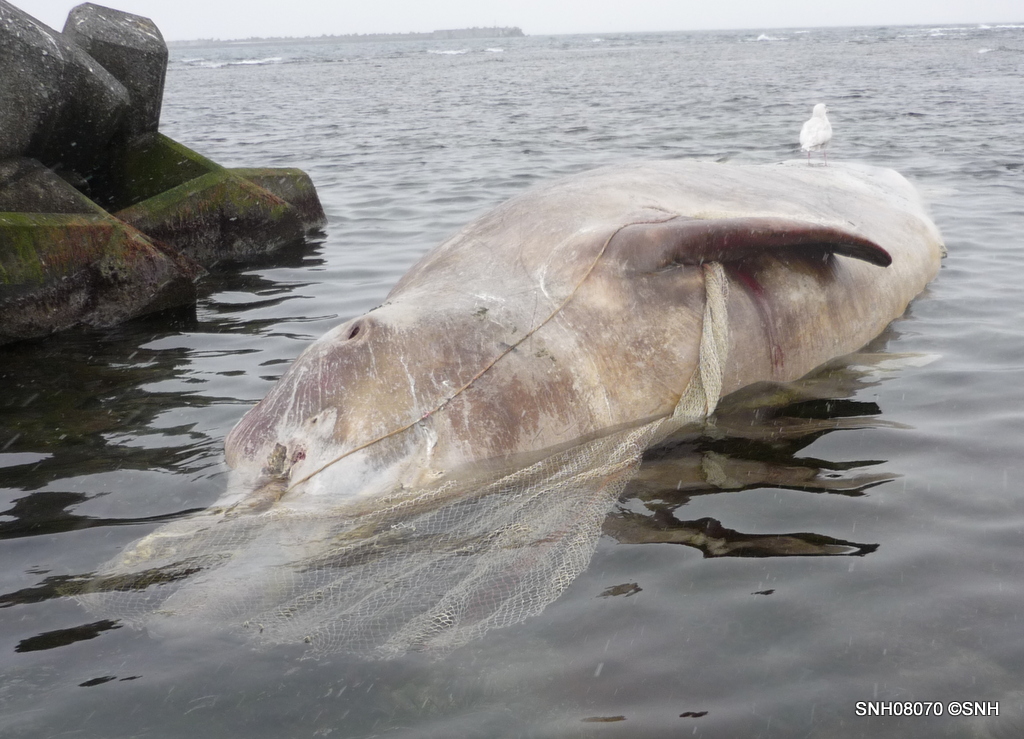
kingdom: Animalia
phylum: Chordata
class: Mammalia
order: Cetacea
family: Hyperoodontidae
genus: Berardius
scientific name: Berardius bairdii
